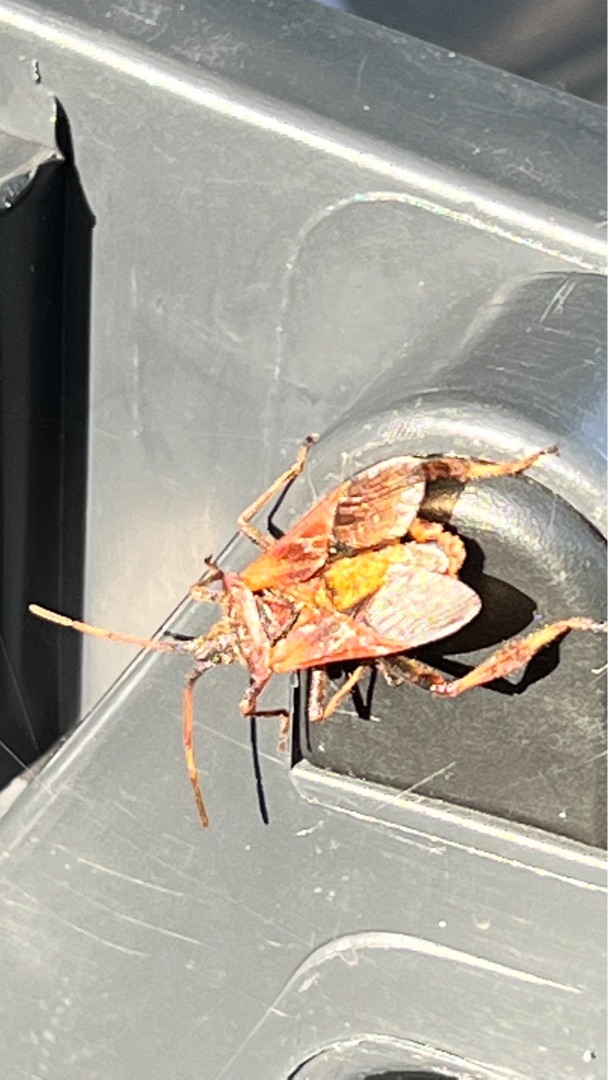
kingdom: Animalia
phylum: Arthropoda
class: Insecta
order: Hemiptera
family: Coreidae
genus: Leptoglossus
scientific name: Leptoglossus occidentalis
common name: Amerikansk fyrretæge
